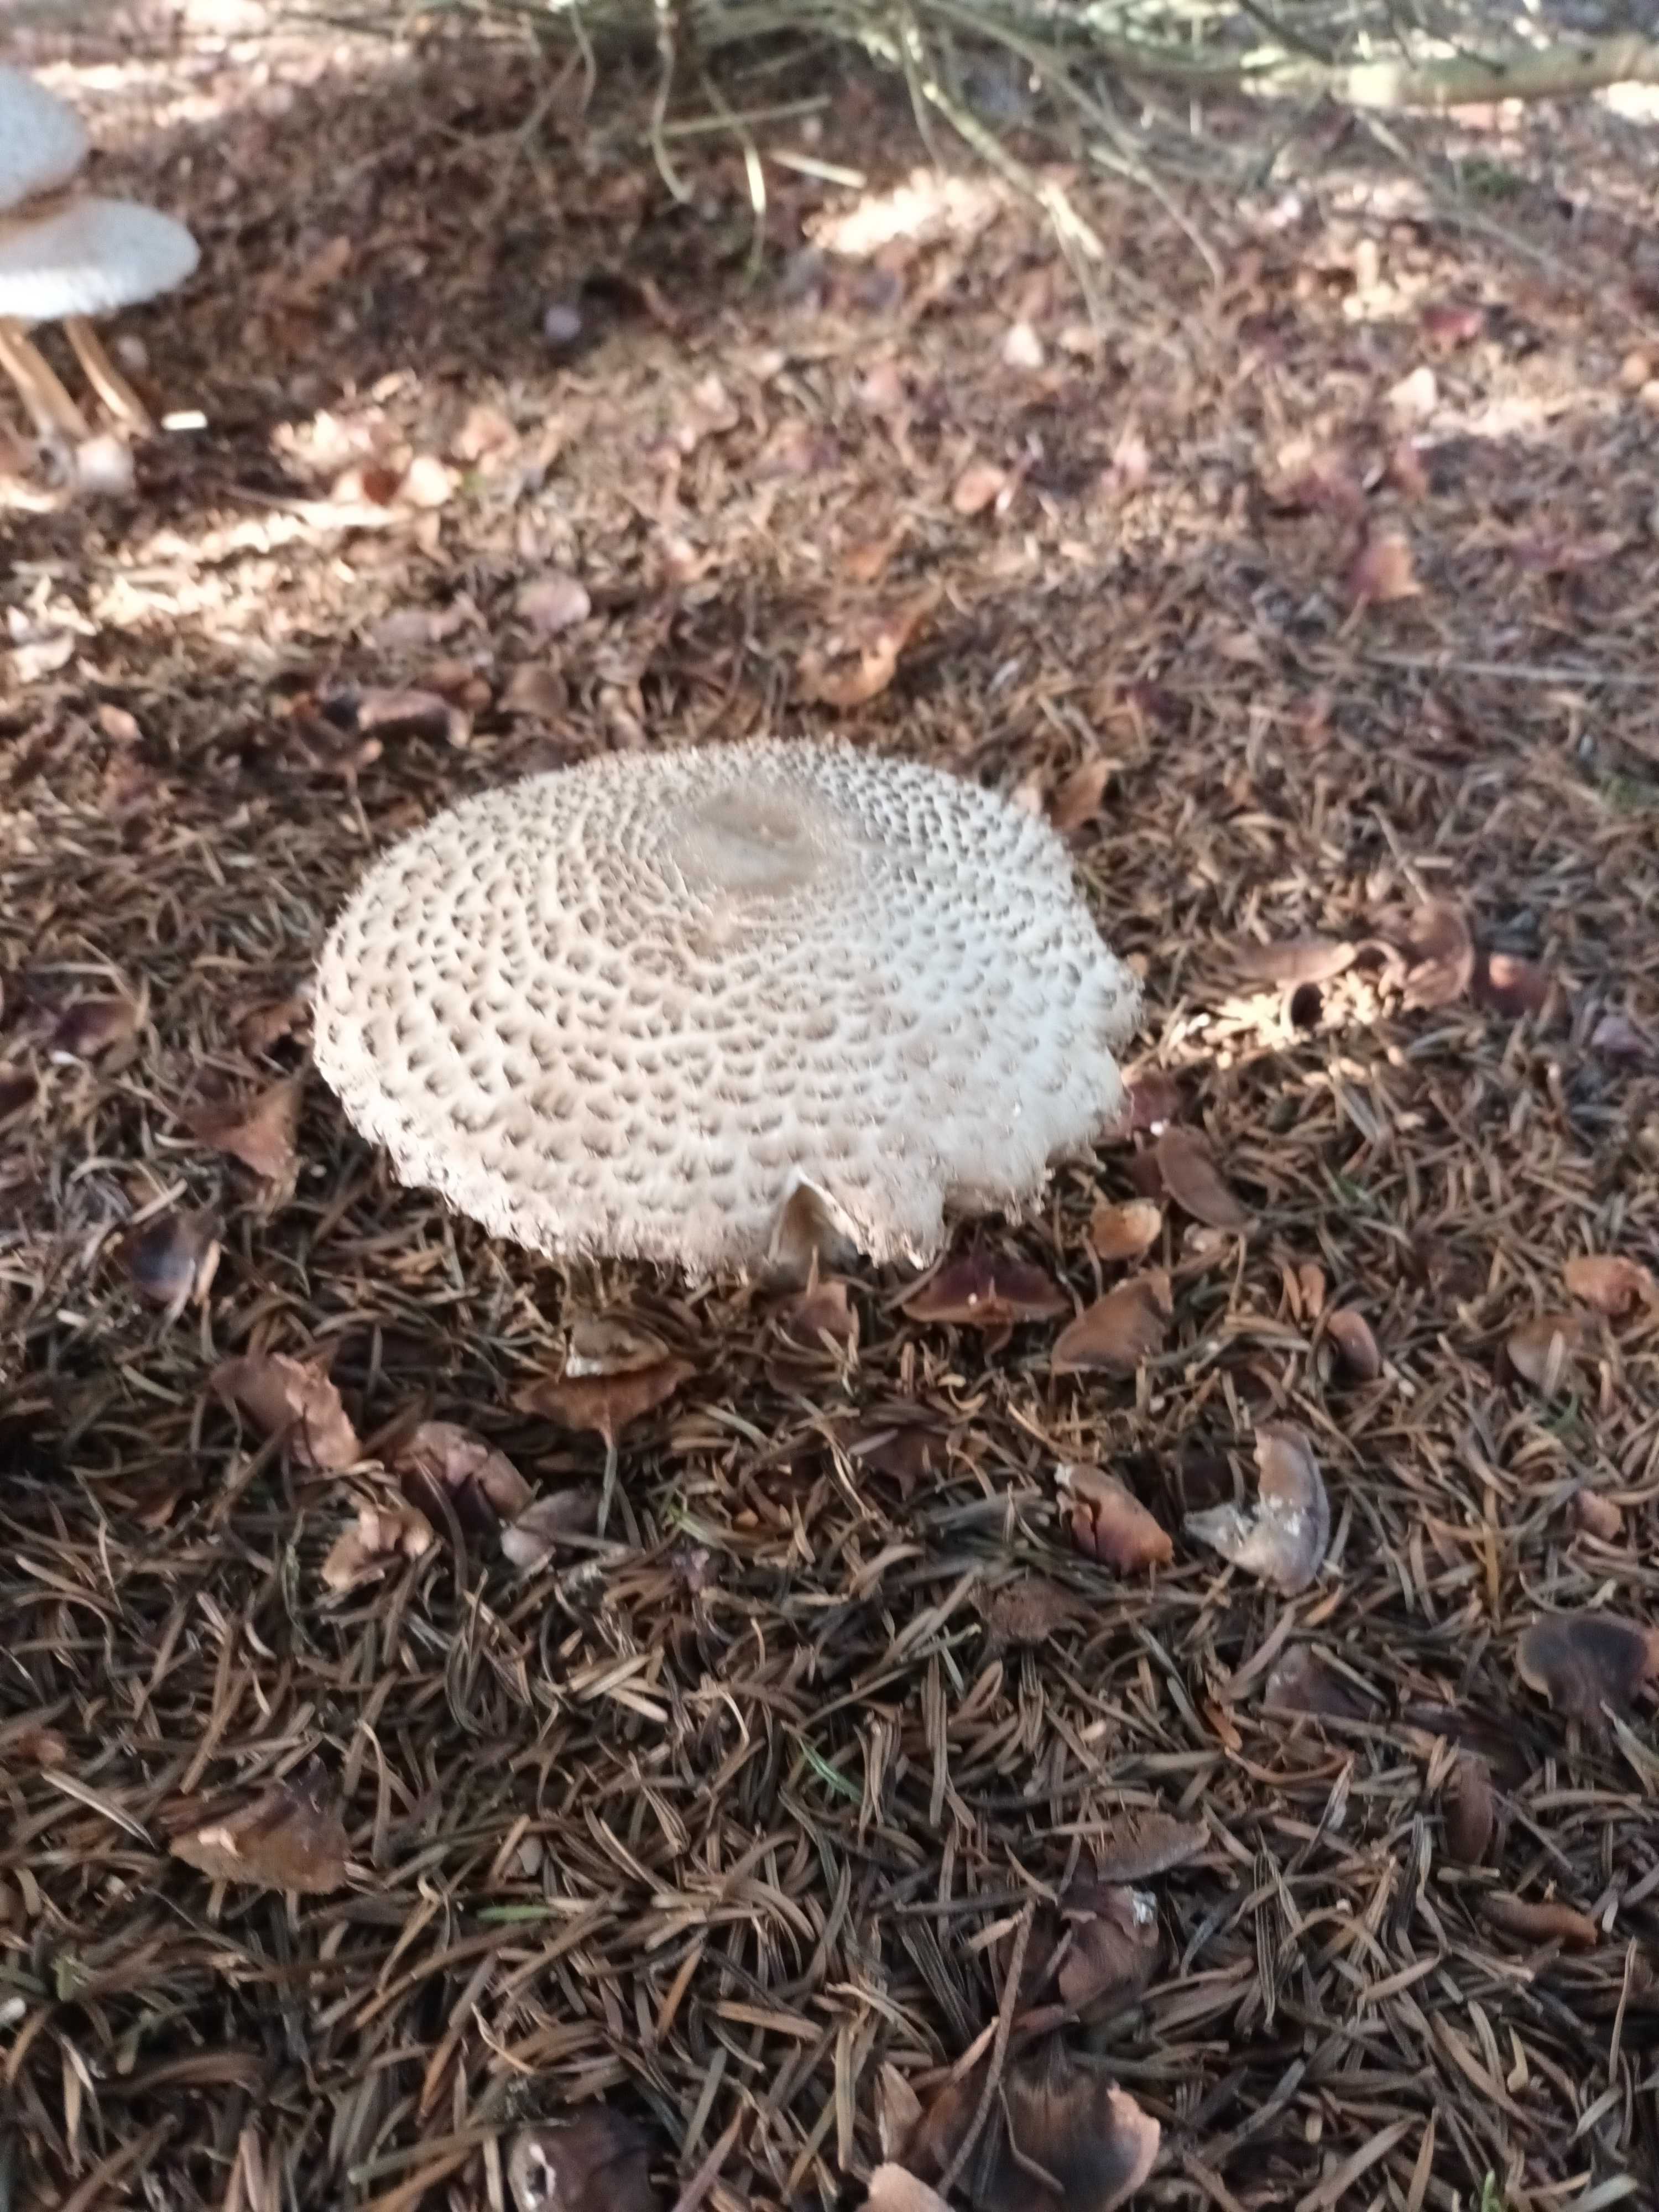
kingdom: Fungi
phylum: Basidiomycota
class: Agaricomycetes
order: Agaricales
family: Agaricaceae
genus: Leucoagaricus
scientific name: Leucoagaricus nympharum
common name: gran-silkehat
